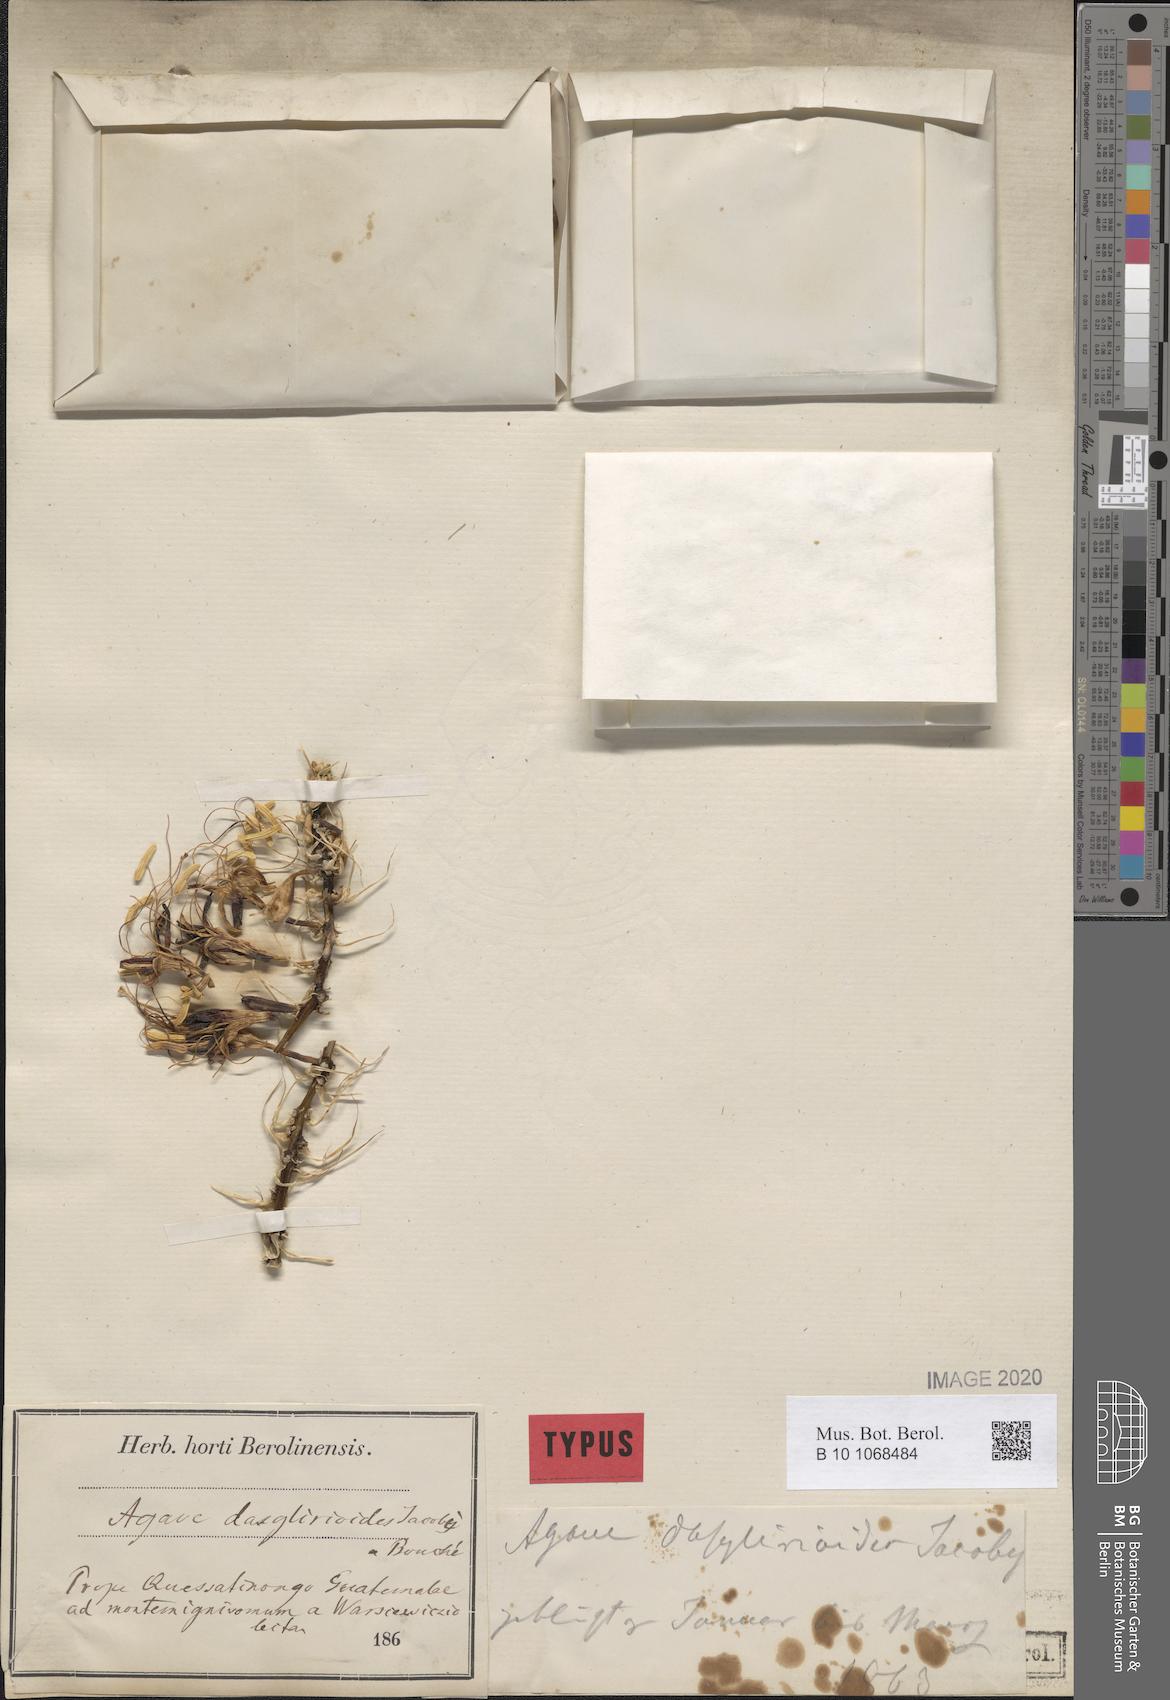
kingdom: Plantae
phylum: Tracheophyta
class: Liliopsida
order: Asparagales
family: Asparagaceae
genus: Agave
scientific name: Agave dealbata
